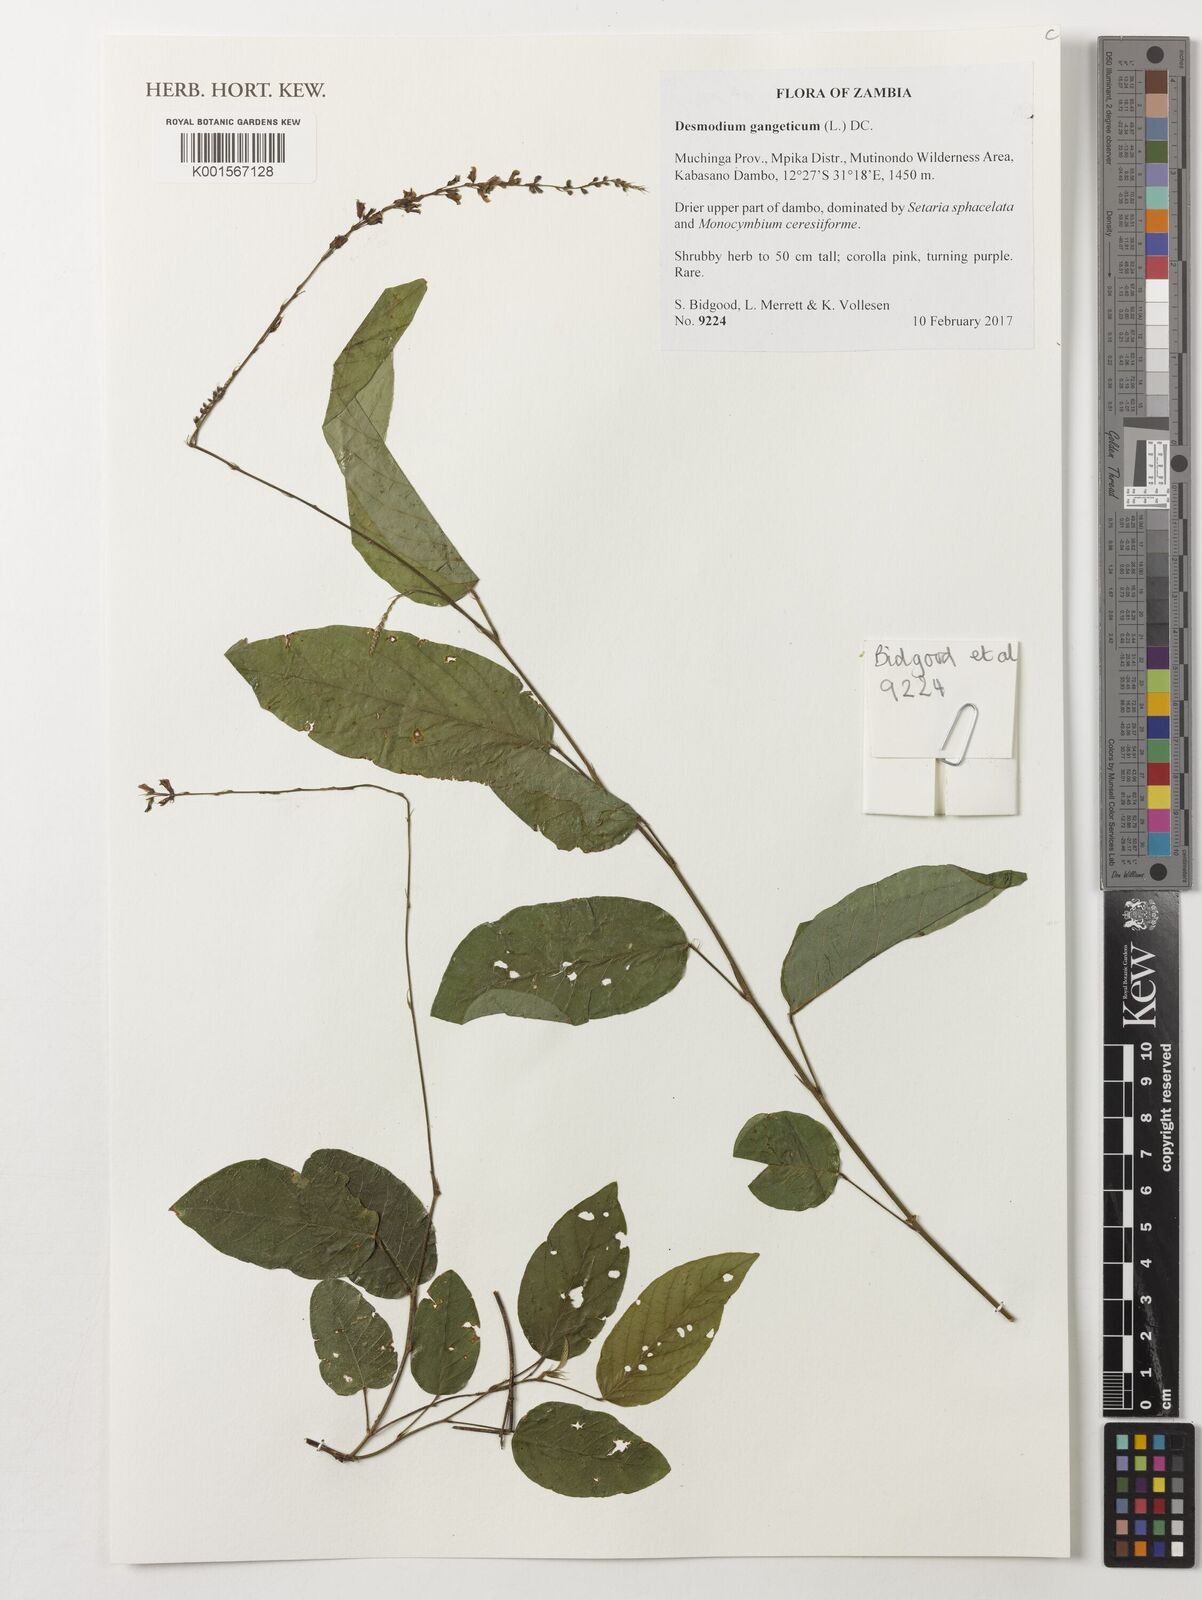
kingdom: Plantae
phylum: Tracheophyta
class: Magnoliopsida
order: Fabales
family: Fabaceae
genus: Pleurolobus
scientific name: Pleurolobus gangeticus
